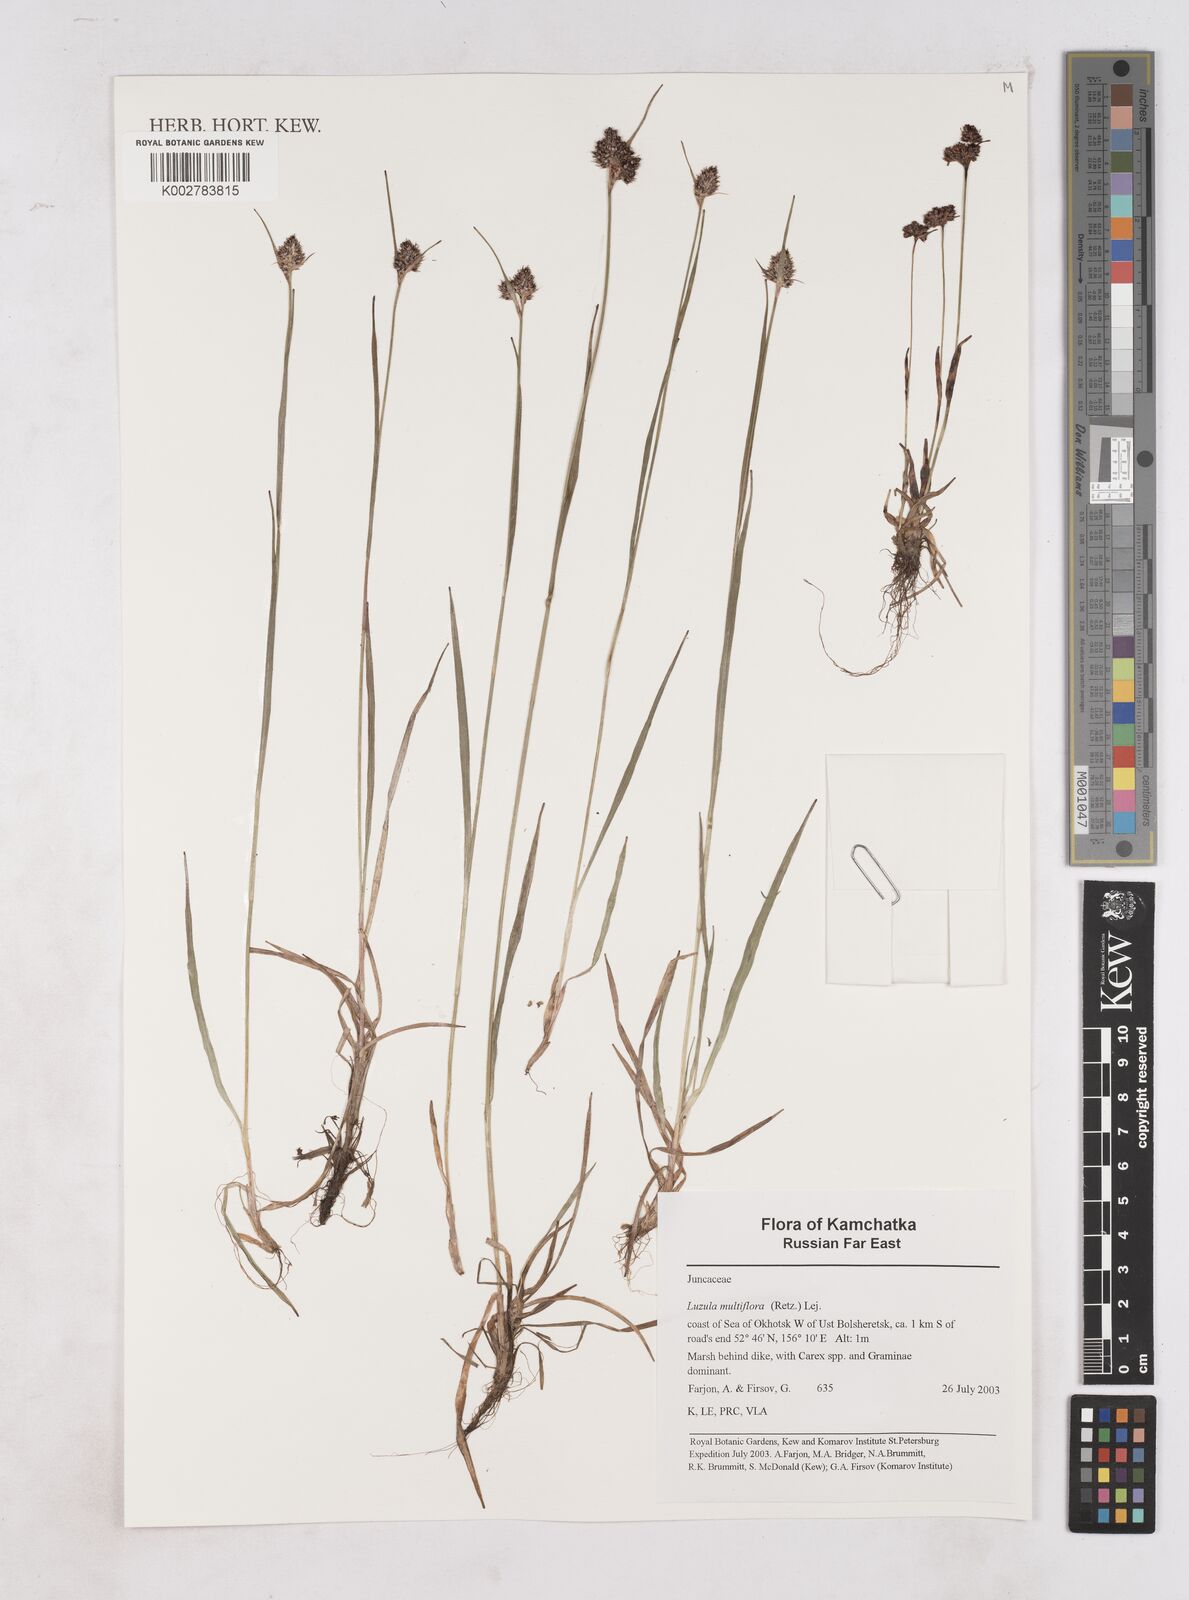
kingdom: Plantae
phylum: Tracheophyta
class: Liliopsida
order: Poales
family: Juncaceae
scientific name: Juncaceae
